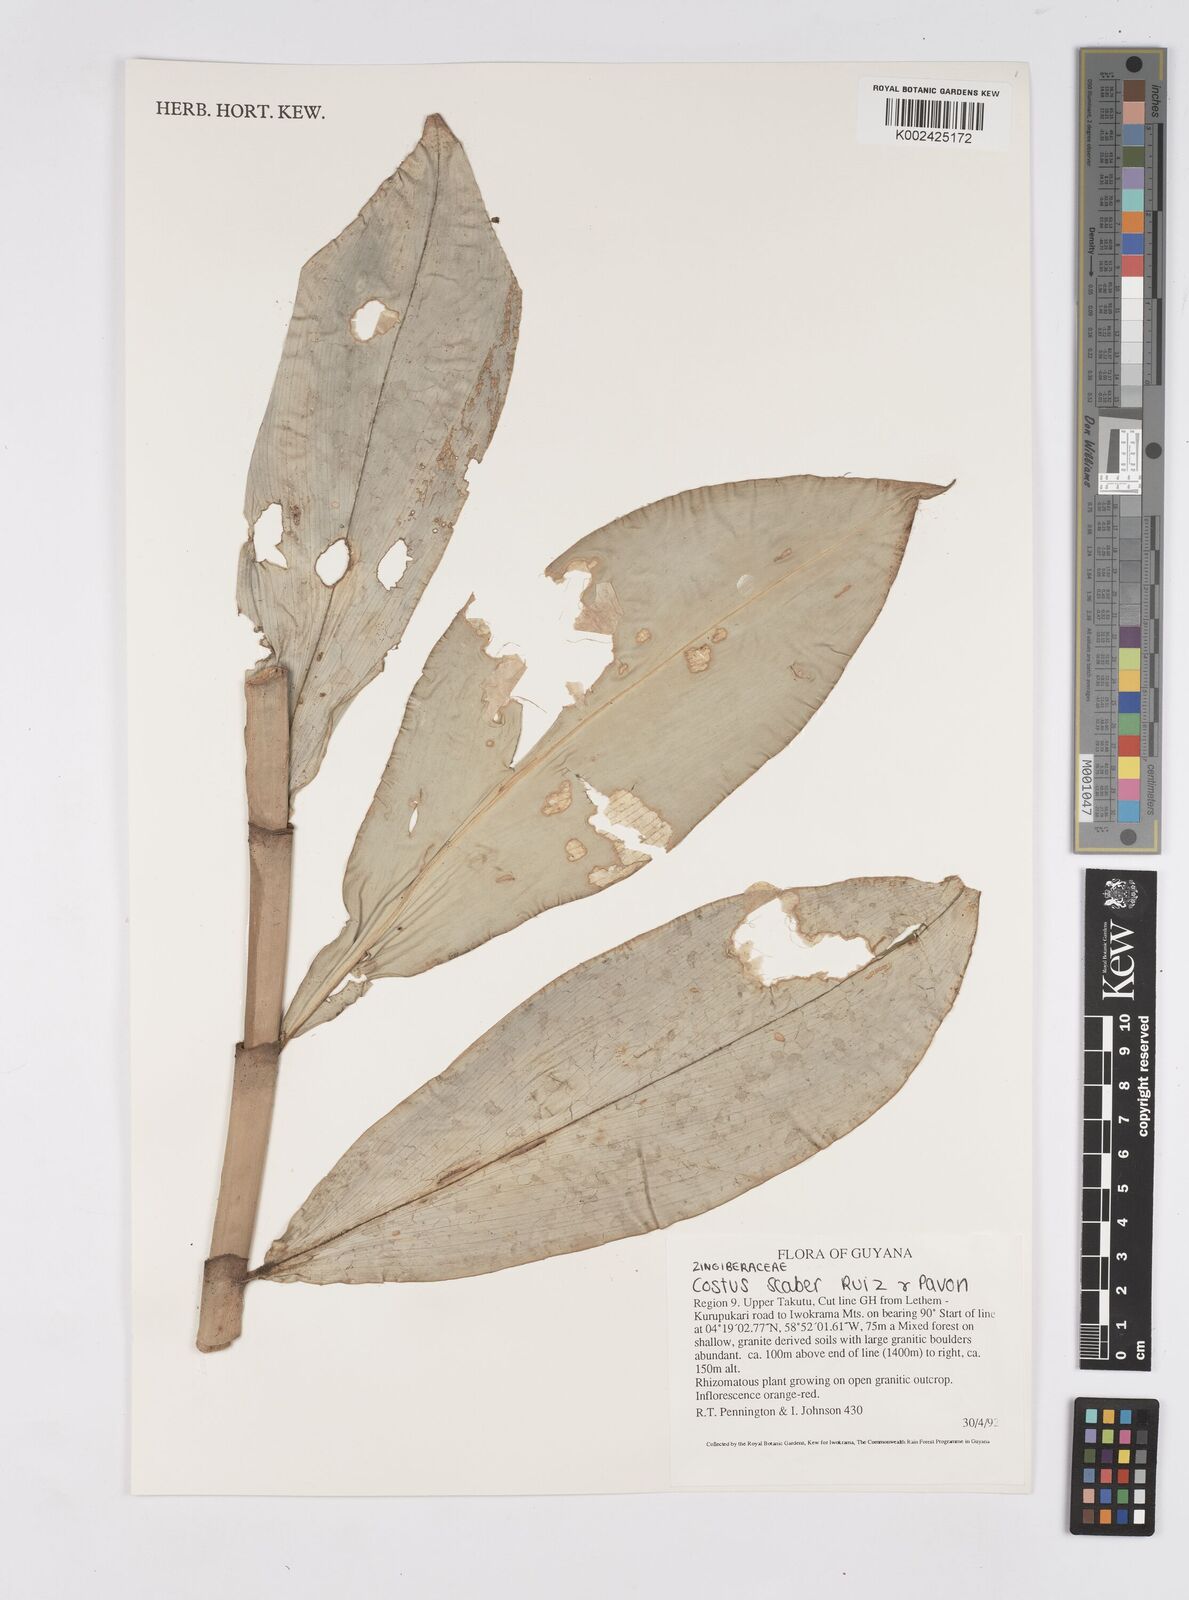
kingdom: Plantae
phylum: Tracheophyta
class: Liliopsida
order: Zingiberales
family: Costaceae
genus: Costus
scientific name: Costus scaber
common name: Spiral head ginger
